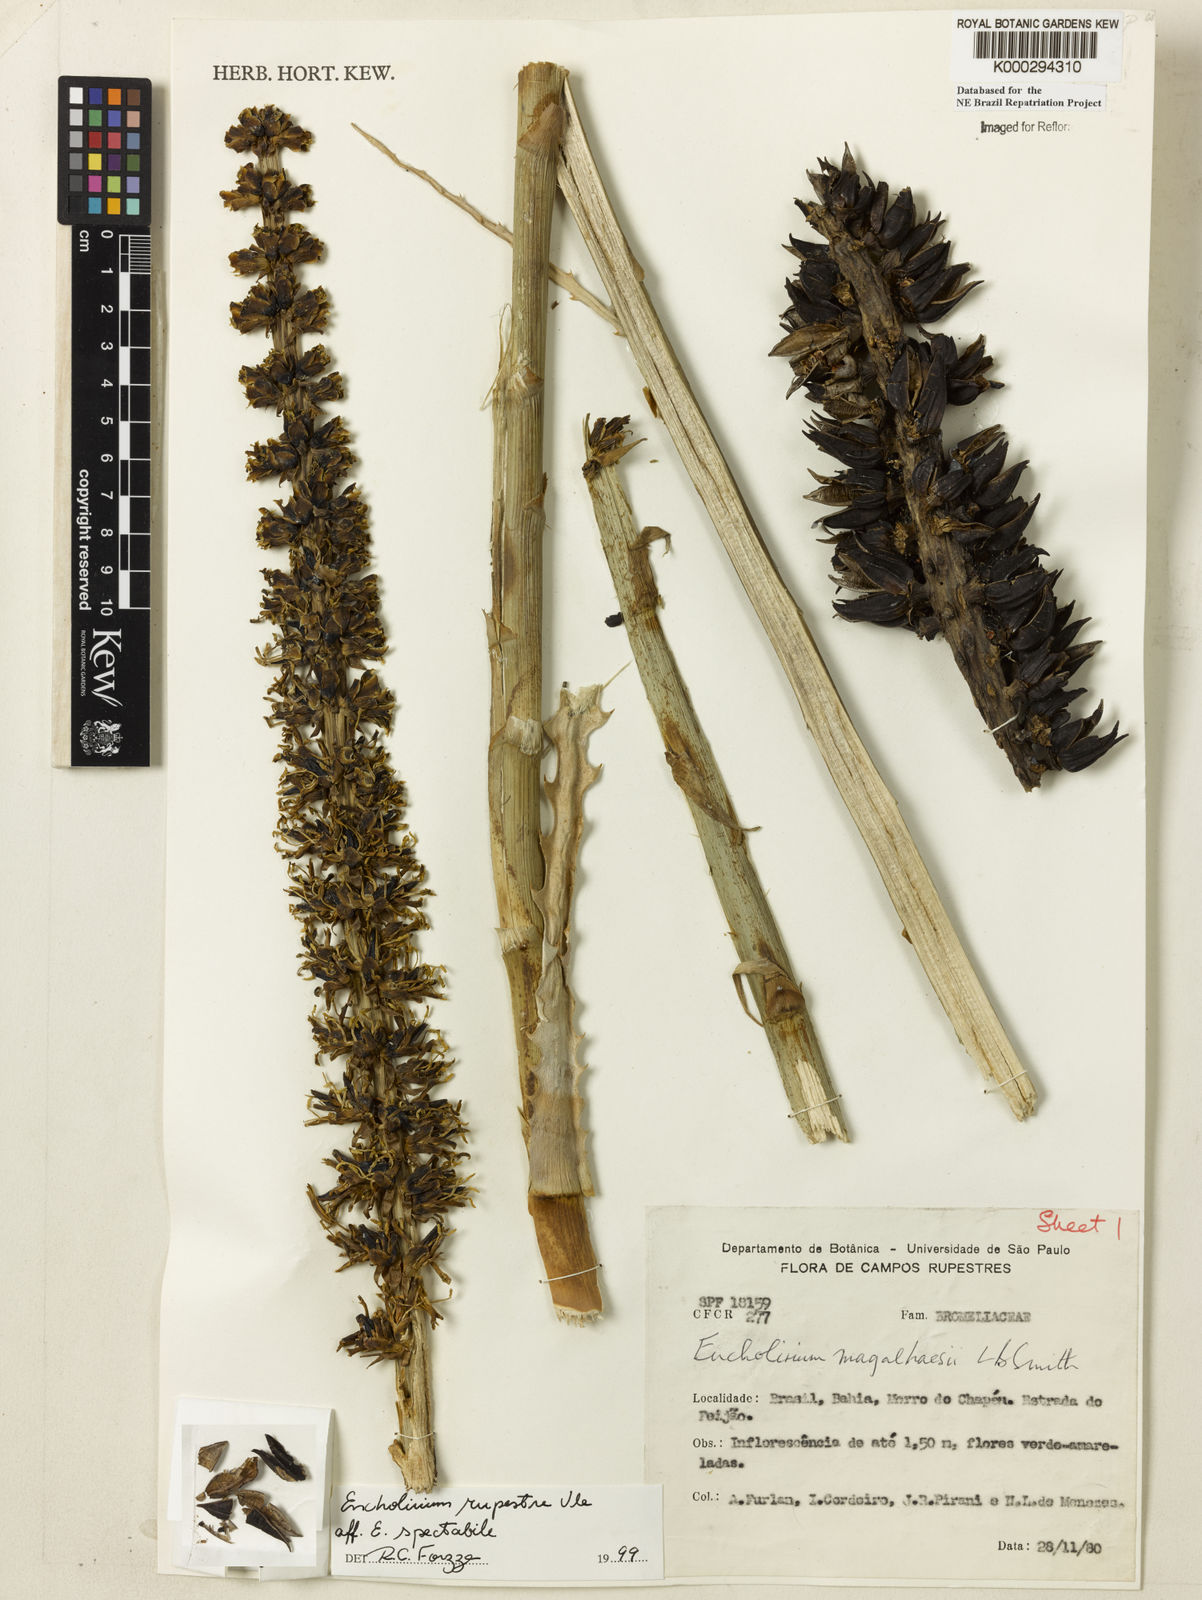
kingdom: Plantae
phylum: Tracheophyta
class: Liliopsida
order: Poales
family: Bromeliaceae
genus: Encholirium
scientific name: Encholirium spectabile
